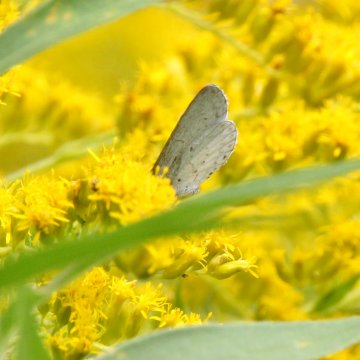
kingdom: Animalia
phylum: Arthropoda
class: Insecta
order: Lepidoptera
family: Lycaenidae
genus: Cyaniris
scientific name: Cyaniris neglecta
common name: Summer Azure
